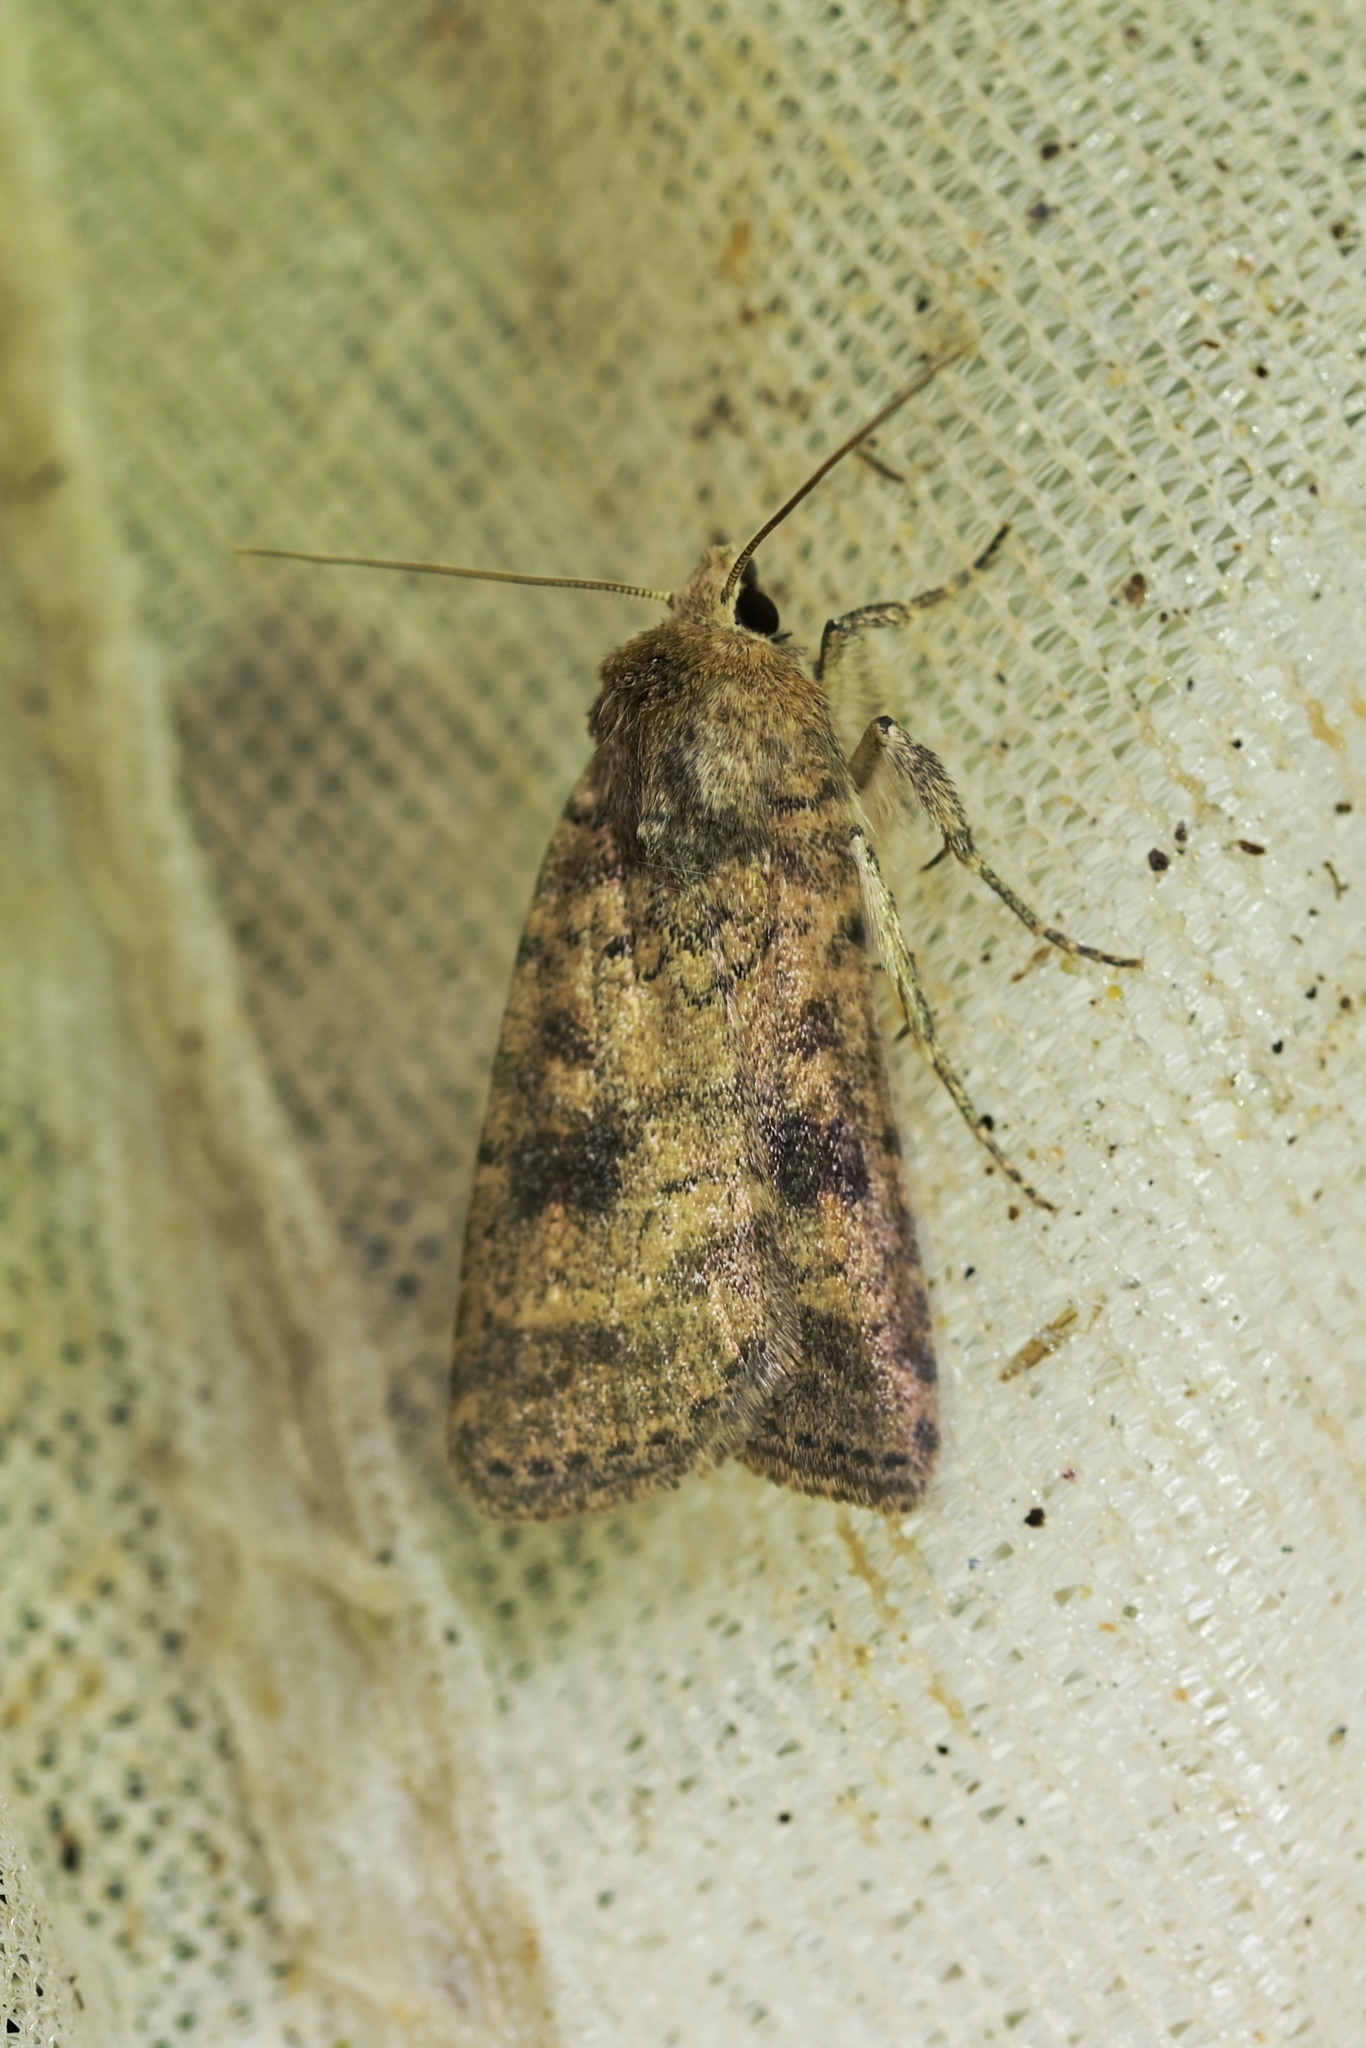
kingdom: Animalia
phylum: Arthropoda
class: Insecta
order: Lepidoptera
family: Noctuidae
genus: Caradrina
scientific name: Caradrina morpheus
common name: Mottled rustic
